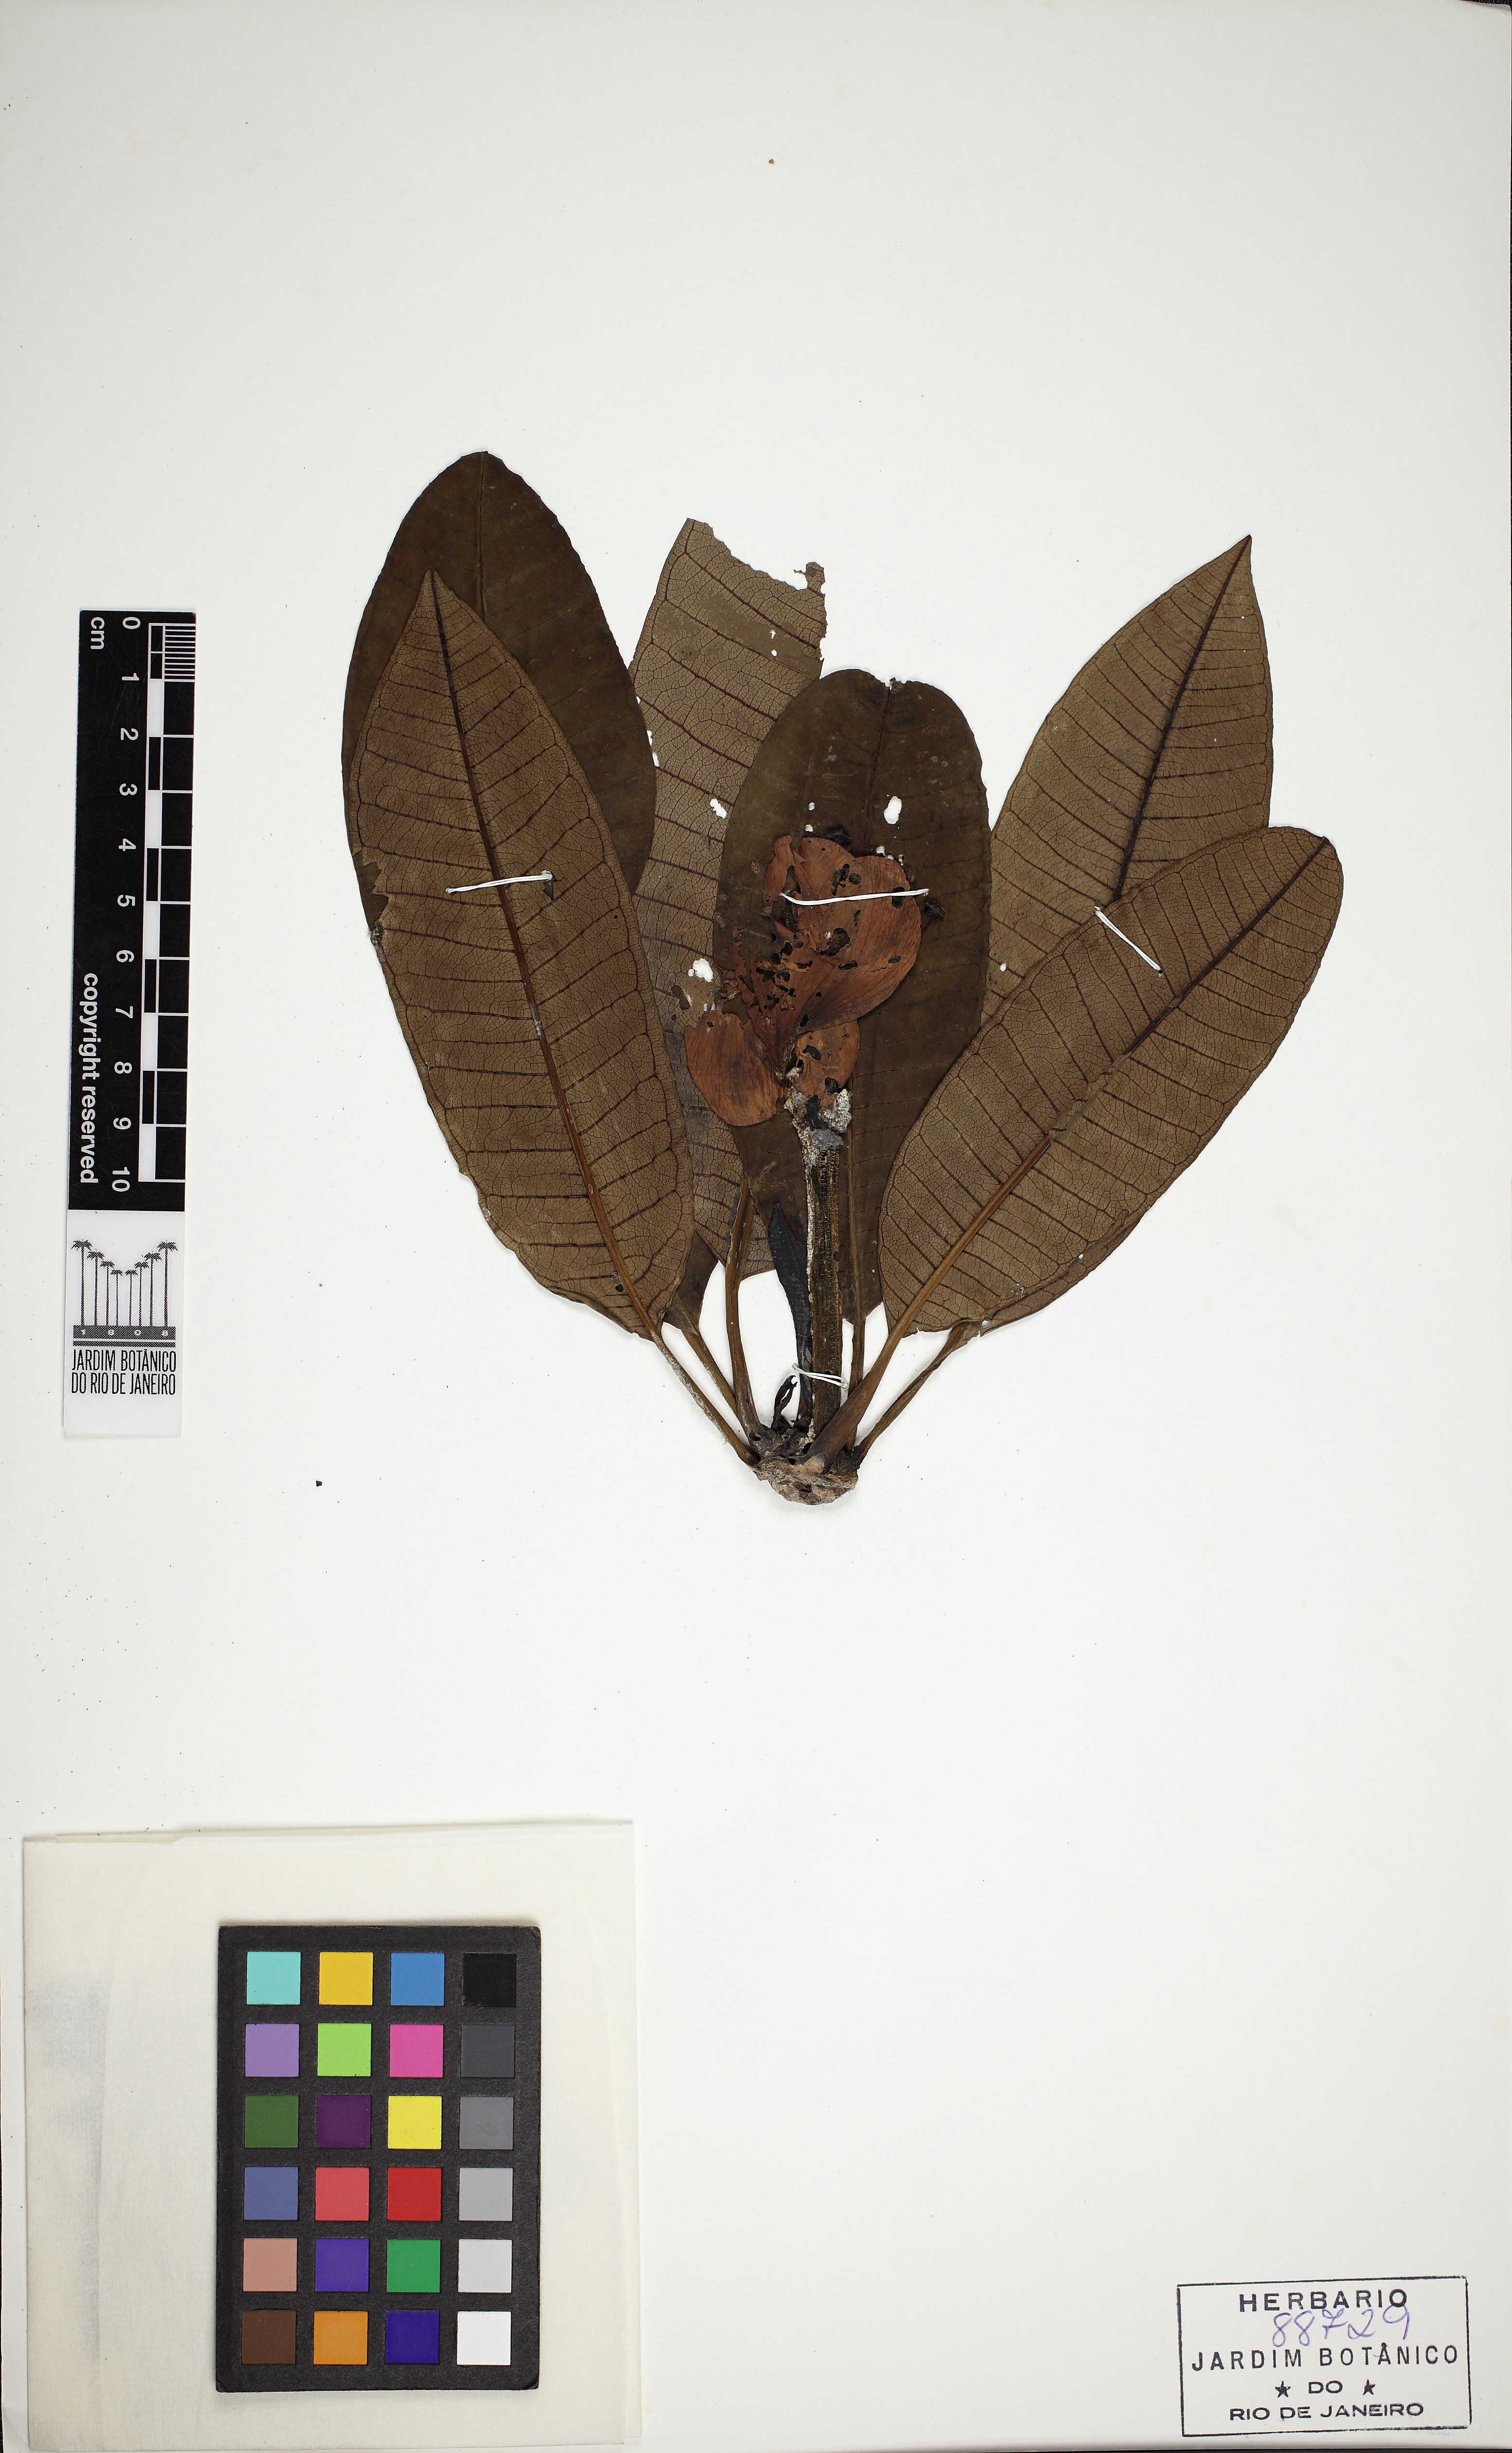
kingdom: Plantae
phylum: Tracheophyta
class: Magnoliopsida
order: Gentianales
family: Apocynaceae
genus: Plumeria
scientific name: Plumeria rubra
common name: Pagoda-tree
